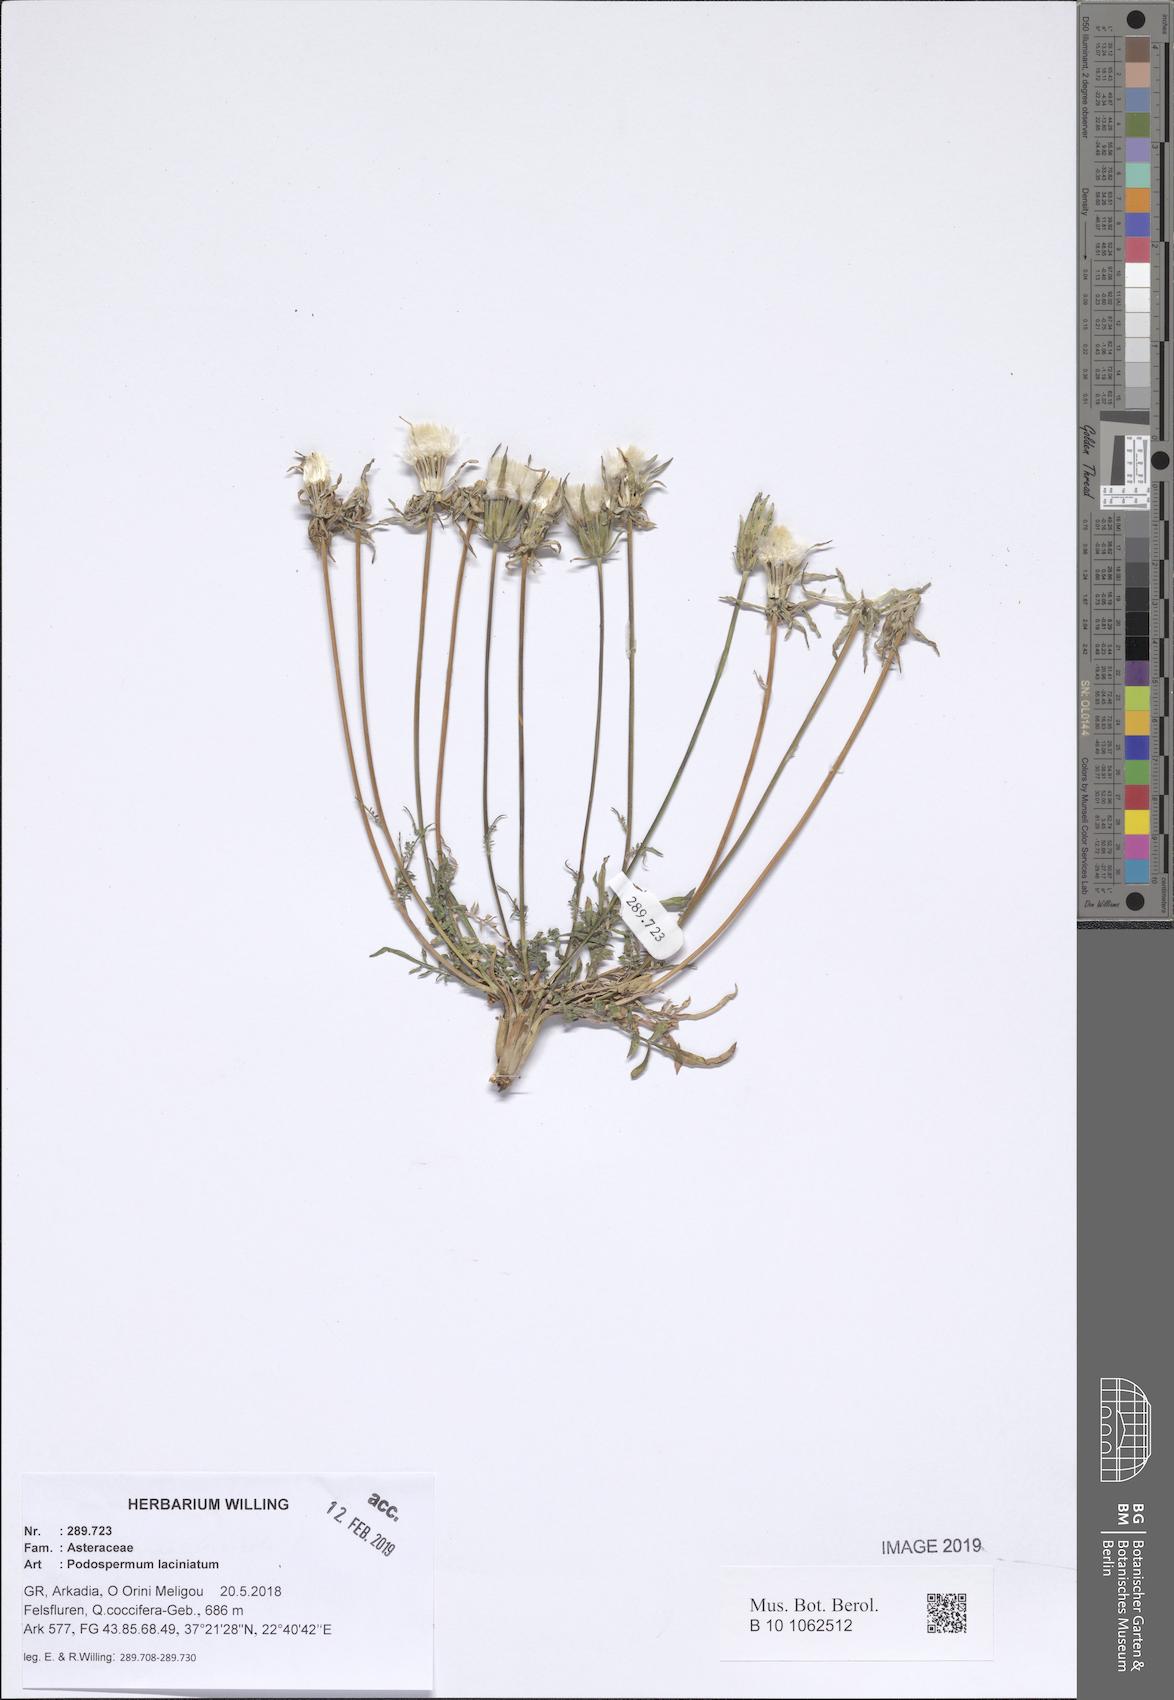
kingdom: Plantae
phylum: Tracheophyta
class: Magnoliopsida
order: Asterales
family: Asteraceae
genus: Scorzonera
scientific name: Scorzonera laciniata
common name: Cutleaf vipergrass
